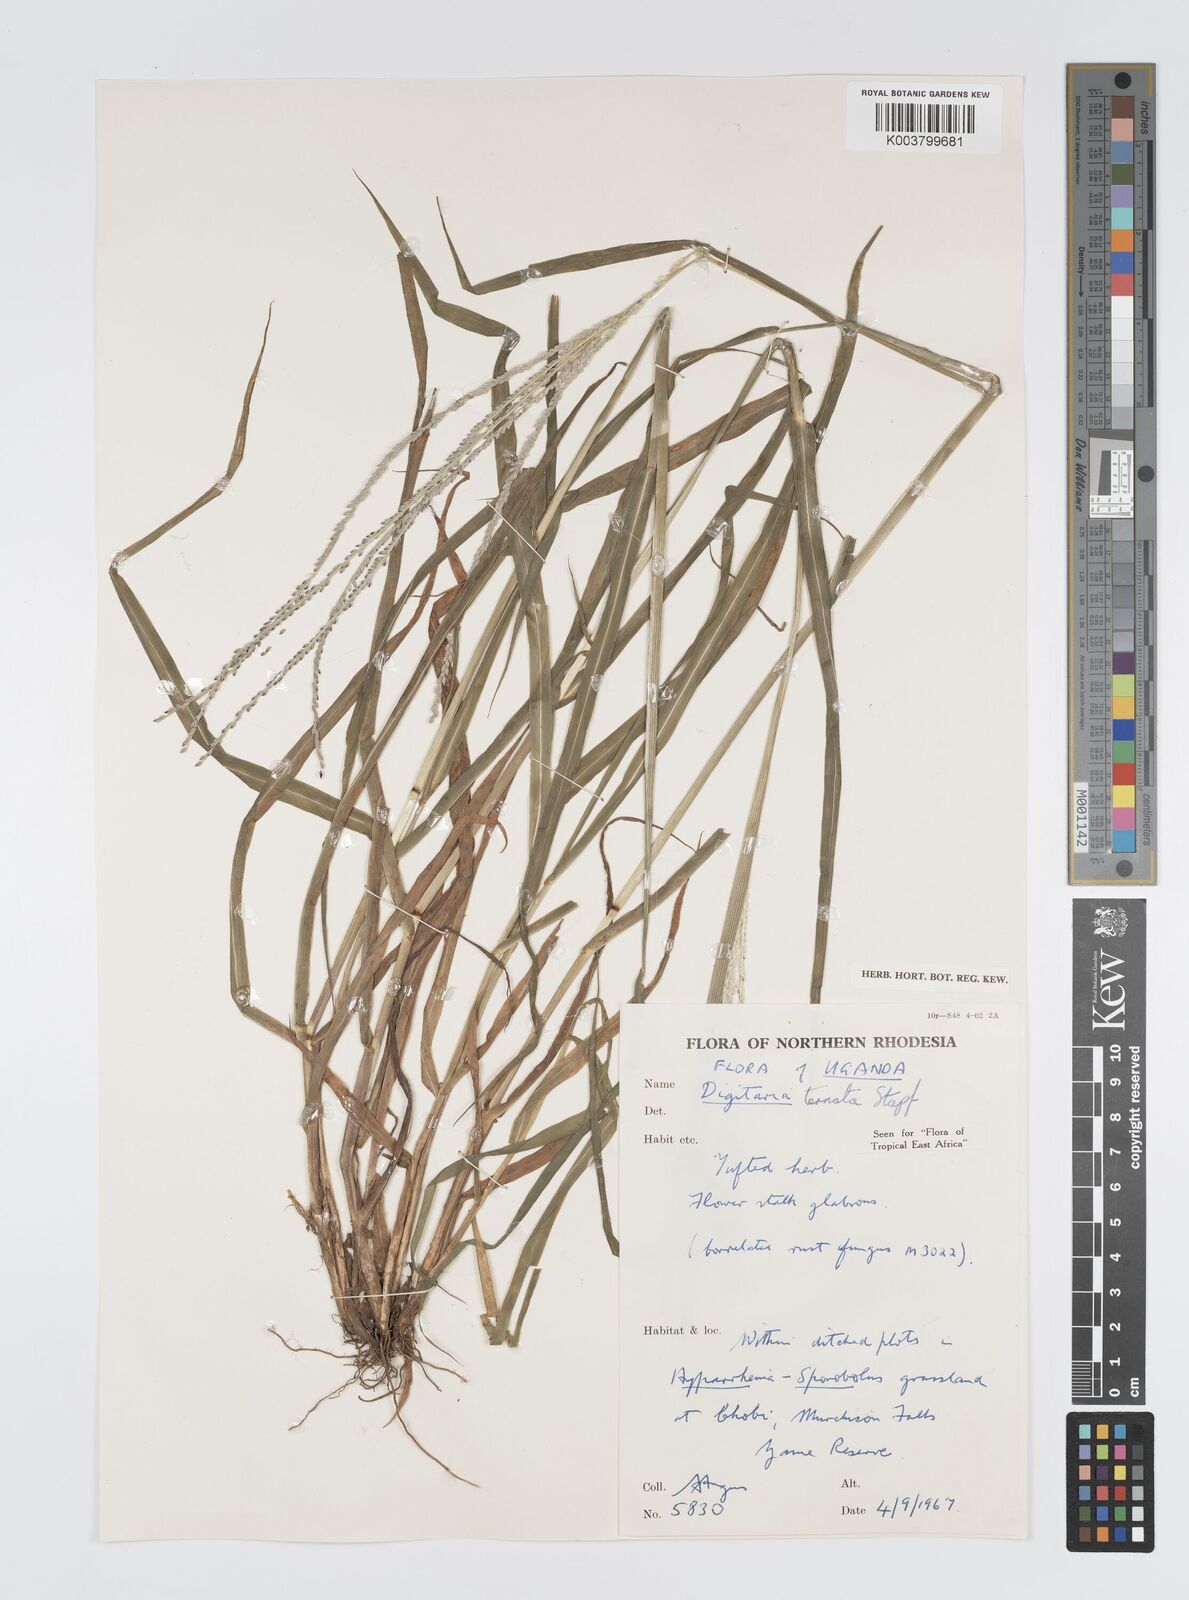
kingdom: Plantae
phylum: Tracheophyta
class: Liliopsida
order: Poales
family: Poaceae
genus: Digitaria
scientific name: Digitaria ternata
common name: Blackseed crabgrass
